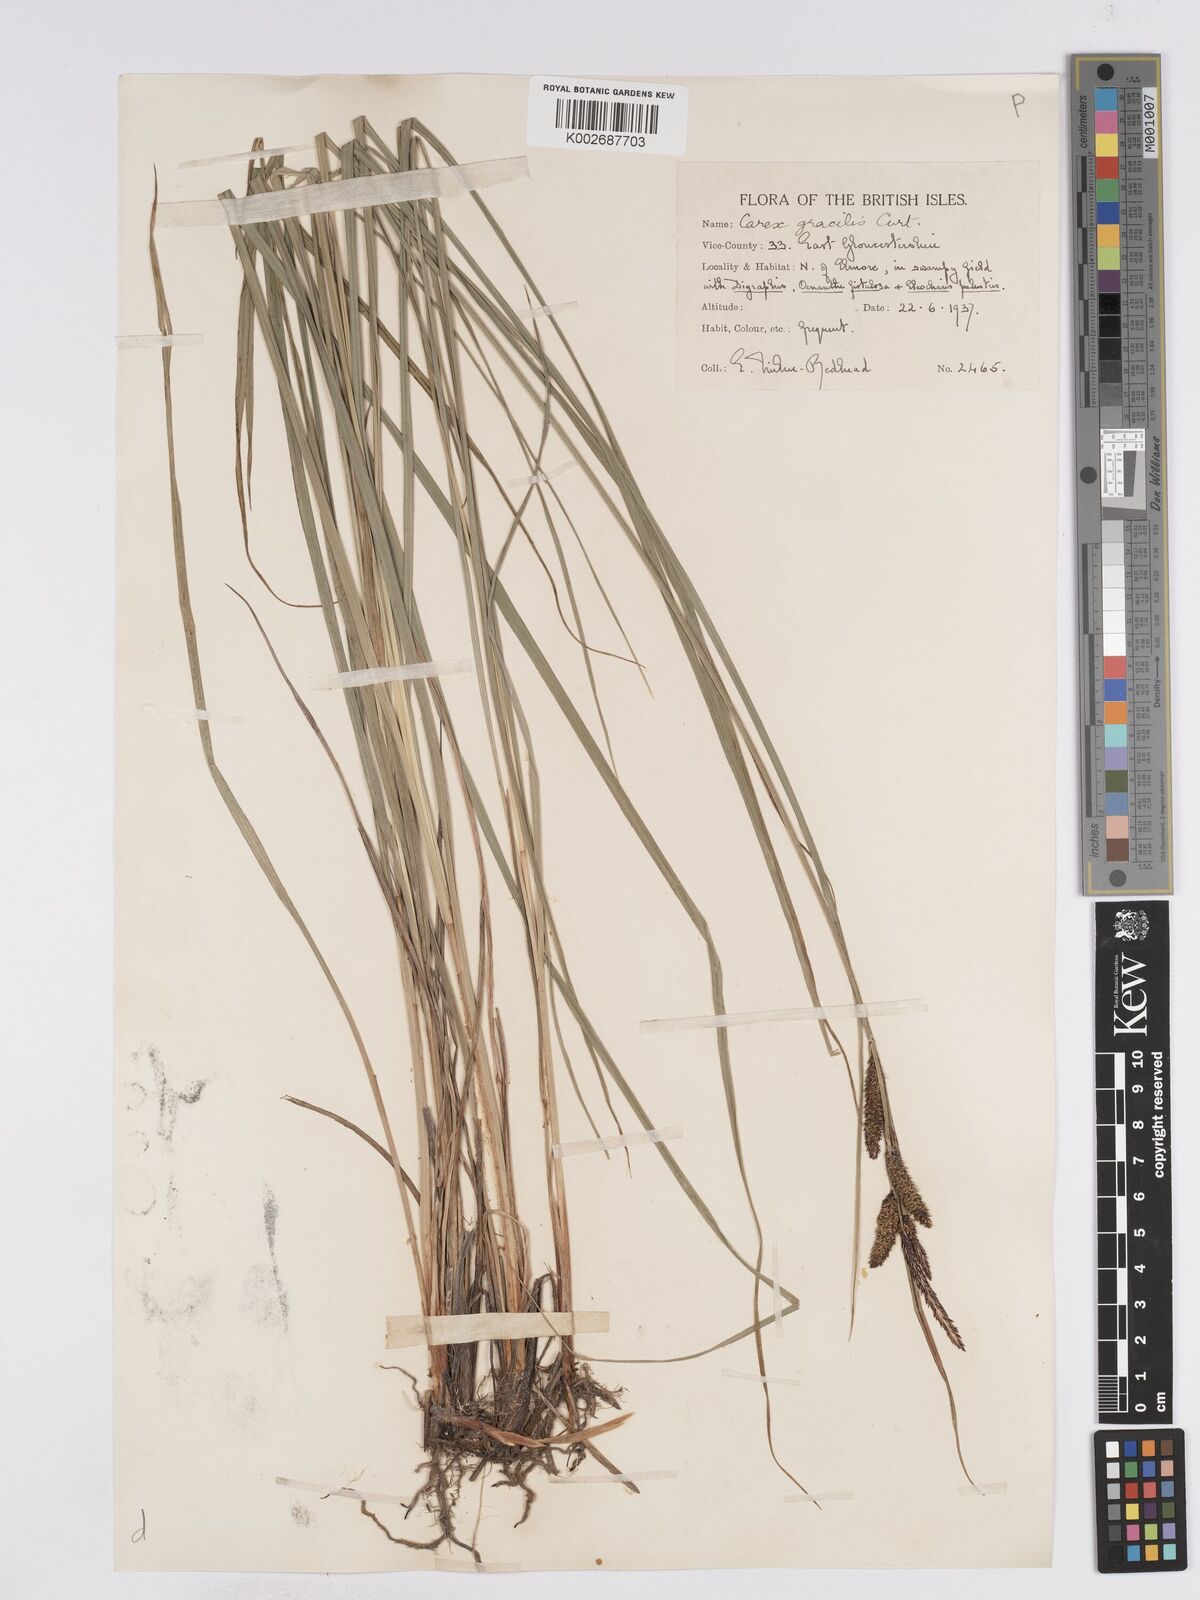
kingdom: Plantae
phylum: Tracheophyta
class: Liliopsida
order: Poales
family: Cyperaceae
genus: Carex
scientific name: Carex acuta
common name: Slender tufted-sedge
